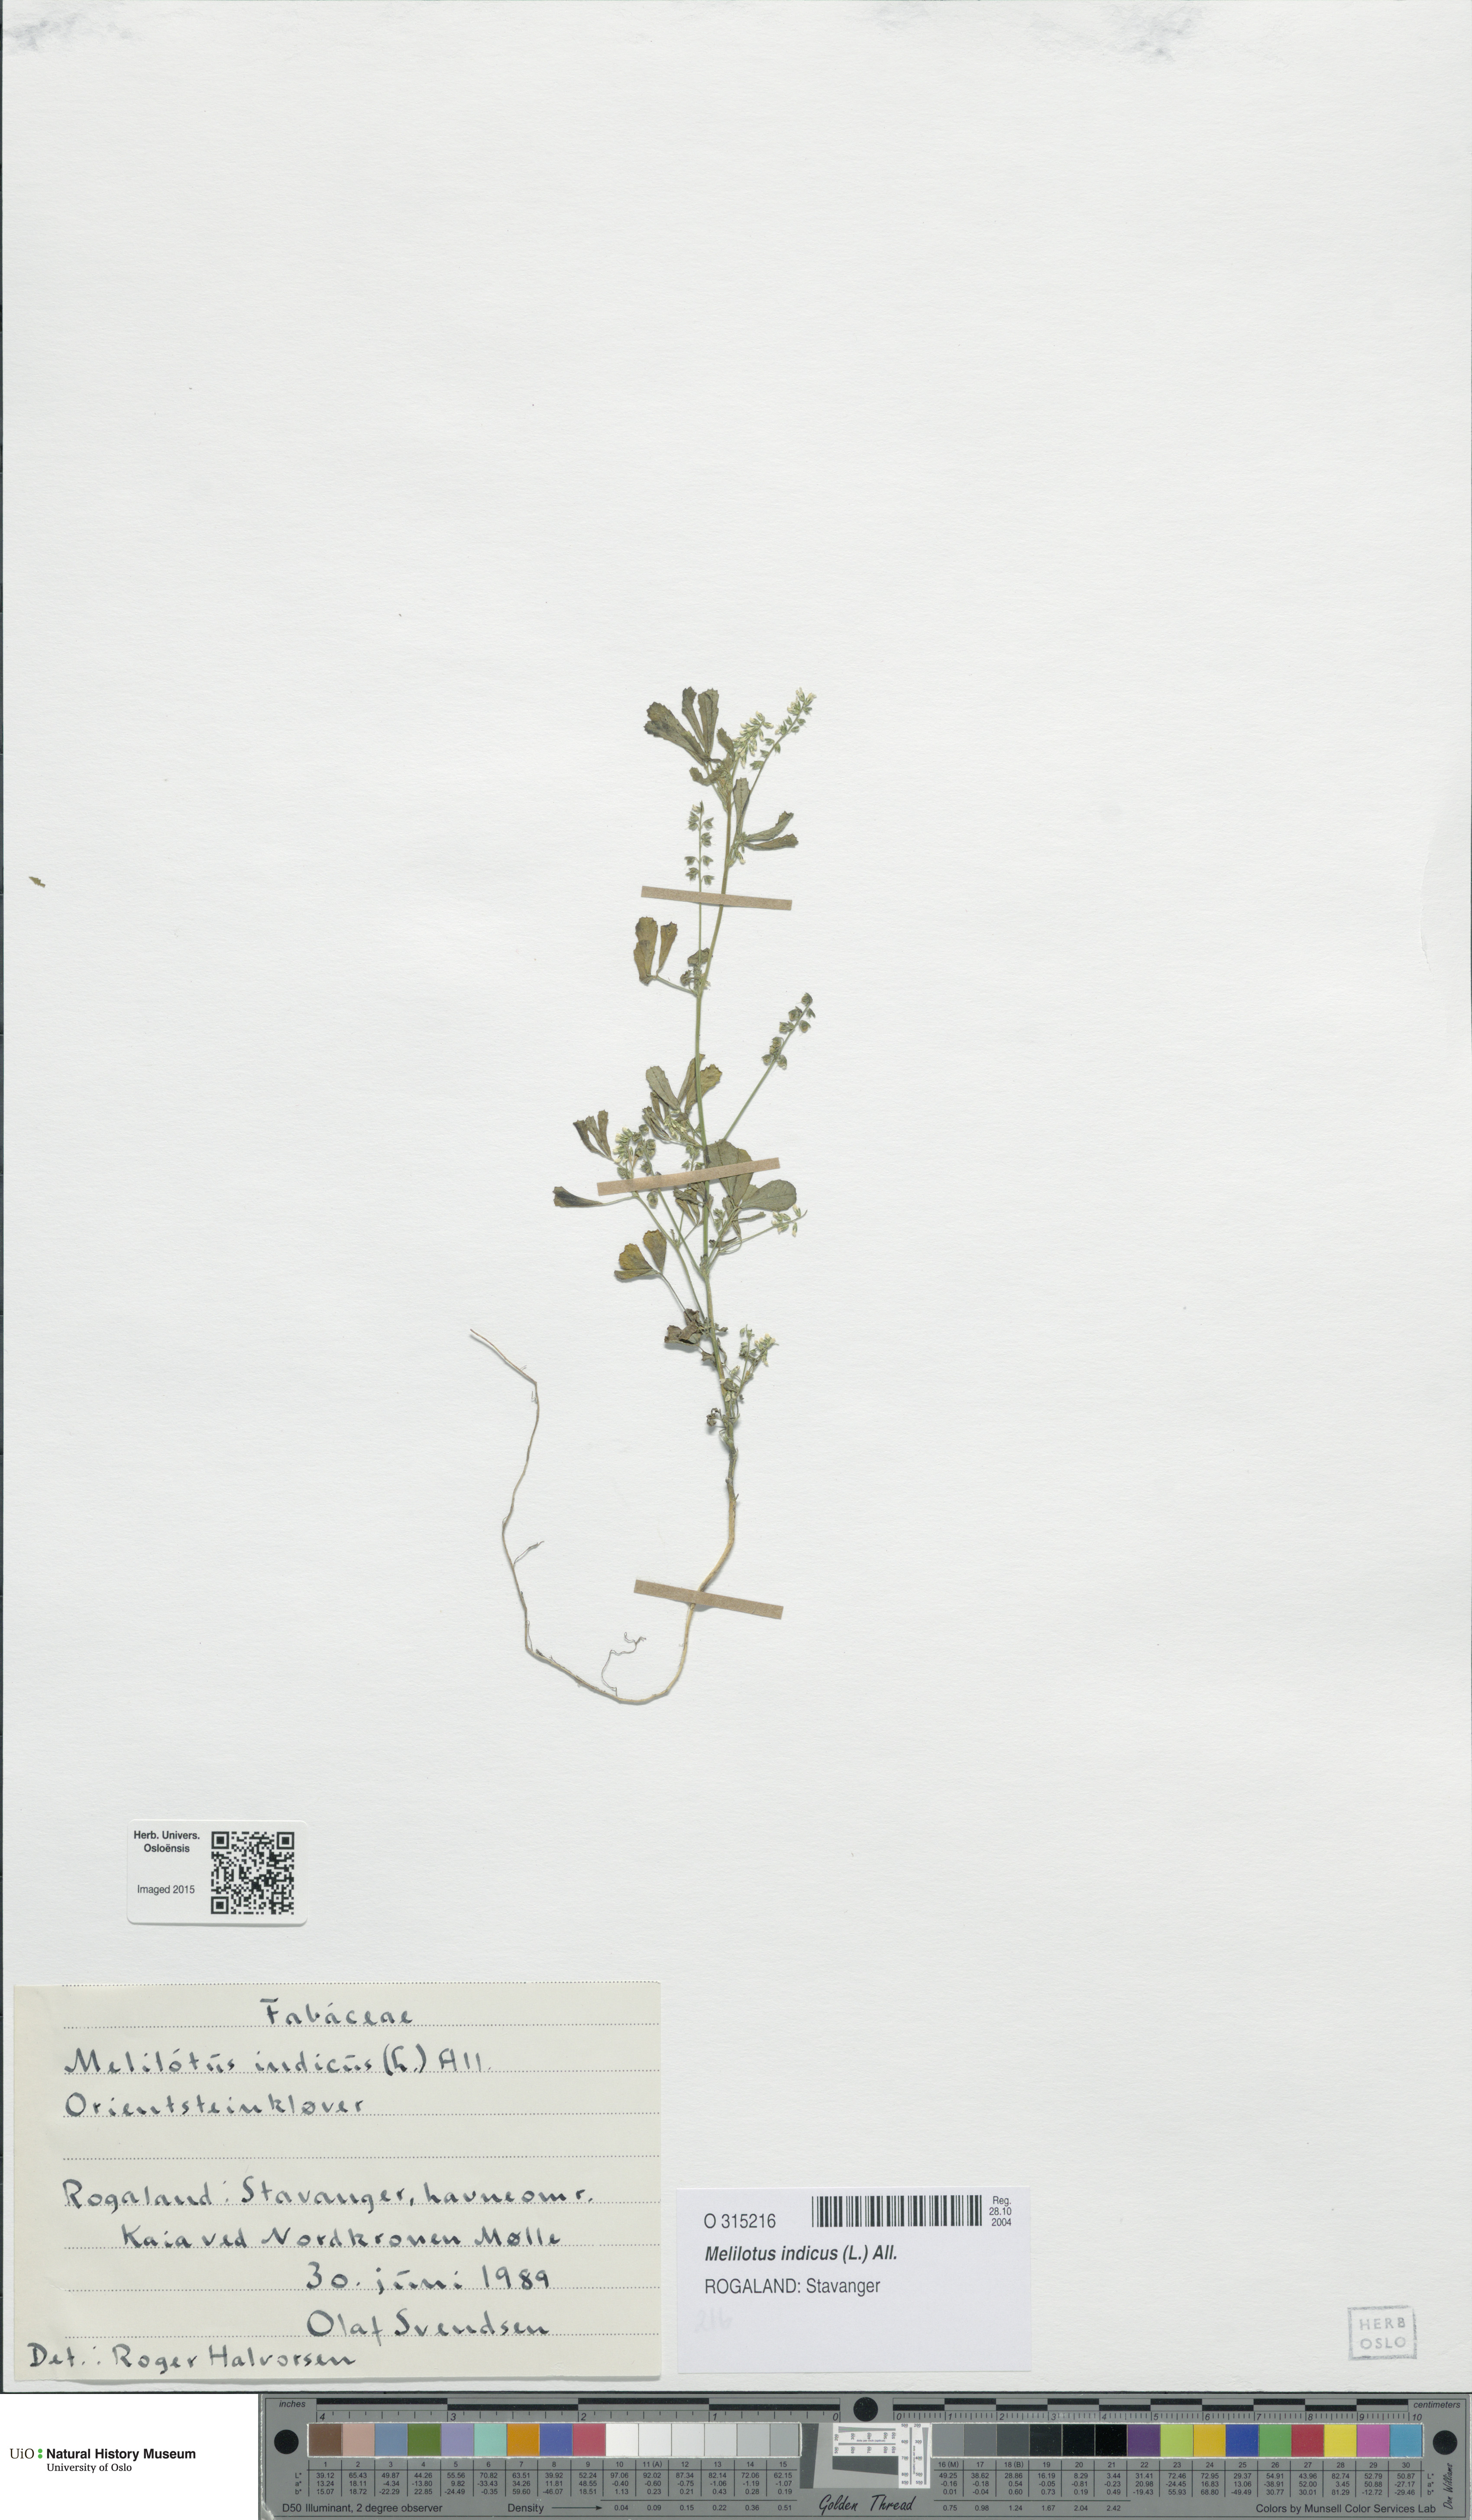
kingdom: Plantae
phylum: Tracheophyta
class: Magnoliopsida
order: Fabales
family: Fabaceae
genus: Melilotus
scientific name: Melilotus indicus
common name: Small melilot
